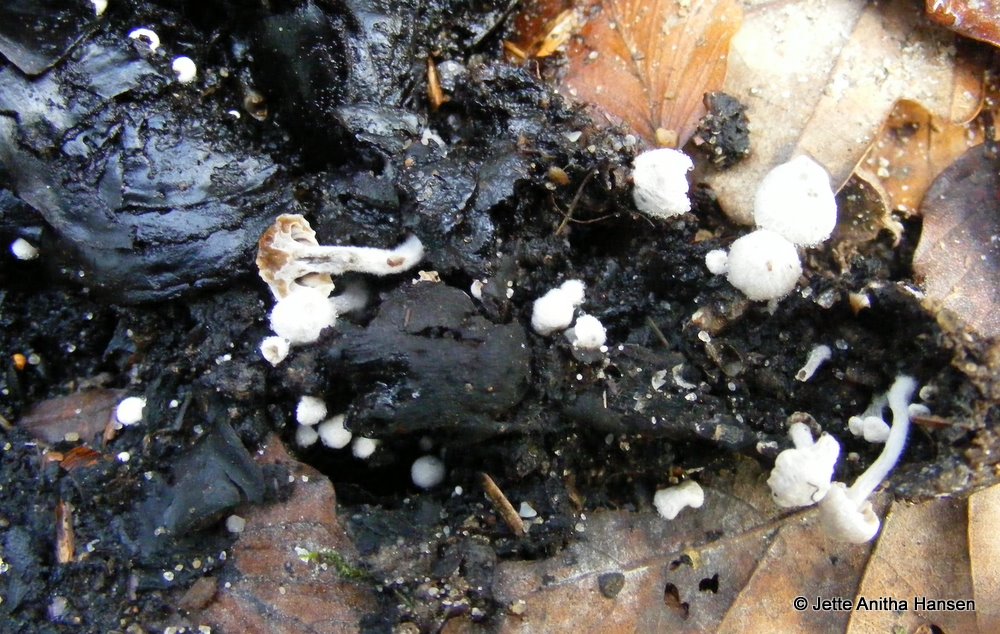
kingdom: Fungi
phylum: Basidiomycota
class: Agaricomycetes
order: Agaricales
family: Lyophyllaceae
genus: Asterophora
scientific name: Asterophora parasitica
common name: grå snyltehat
